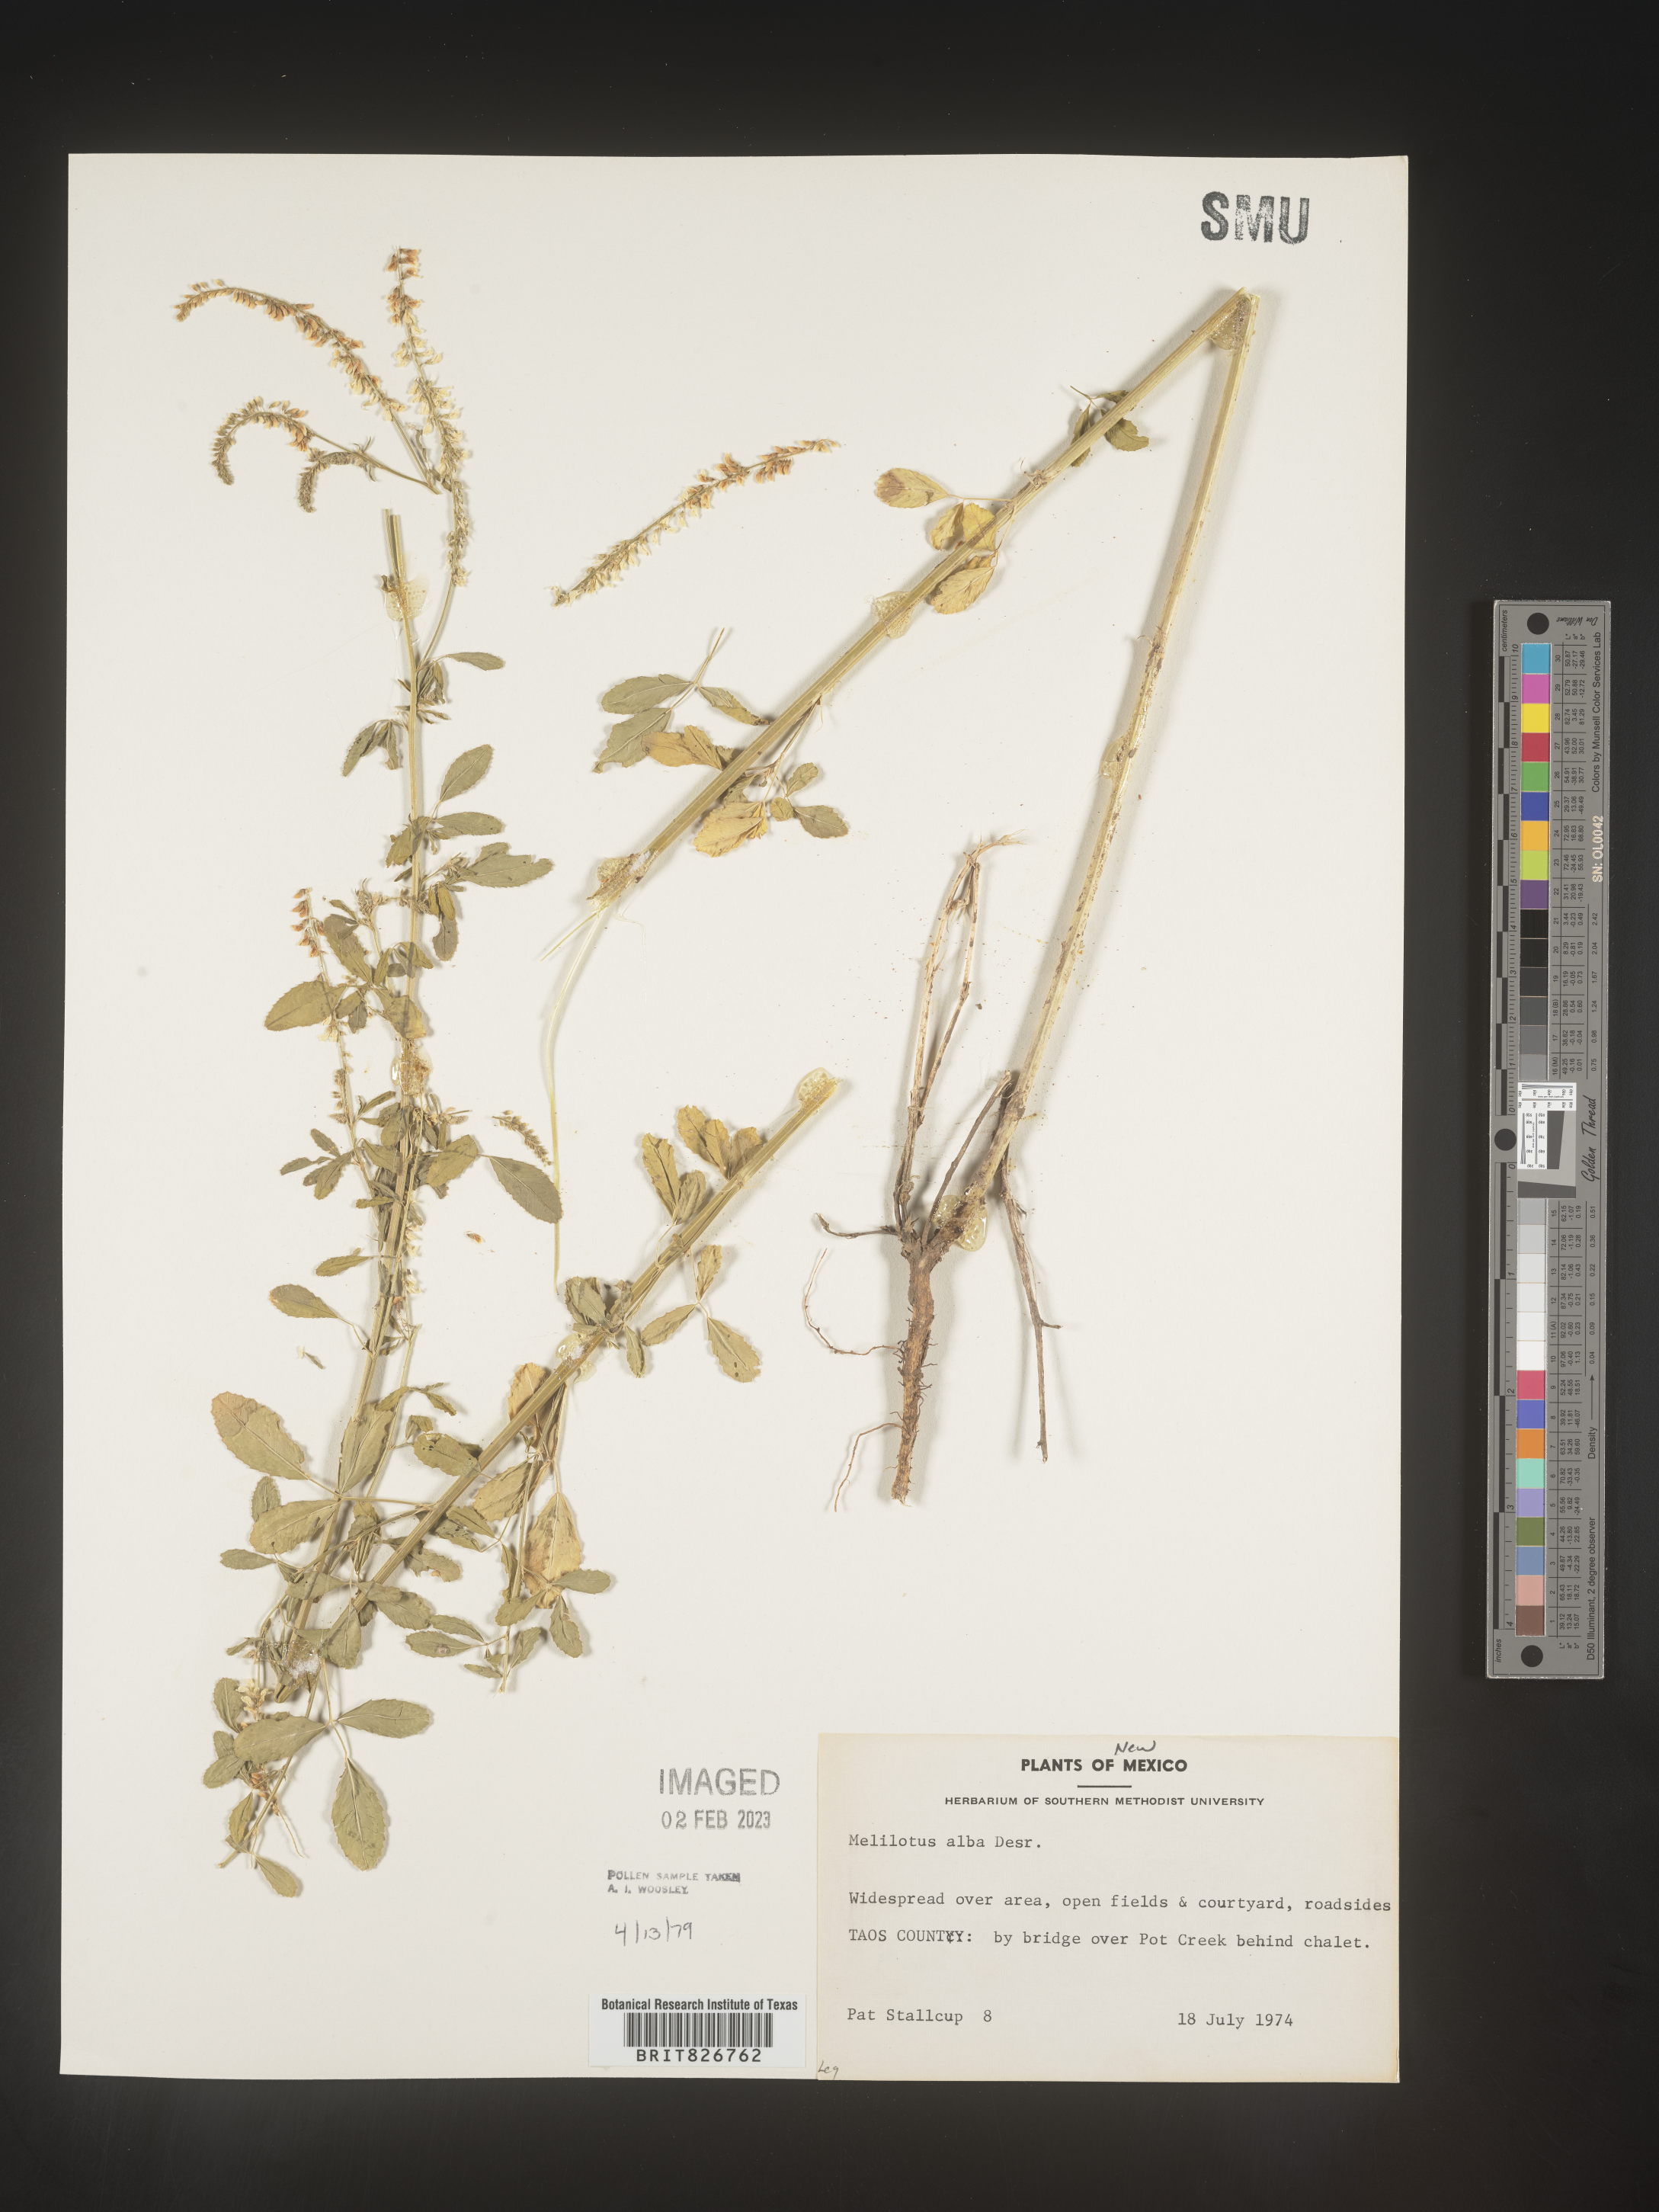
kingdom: Plantae
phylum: Tracheophyta
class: Magnoliopsida
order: Fabales
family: Fabaceae
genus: Melilotus
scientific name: Melilotus albus
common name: White melilot
